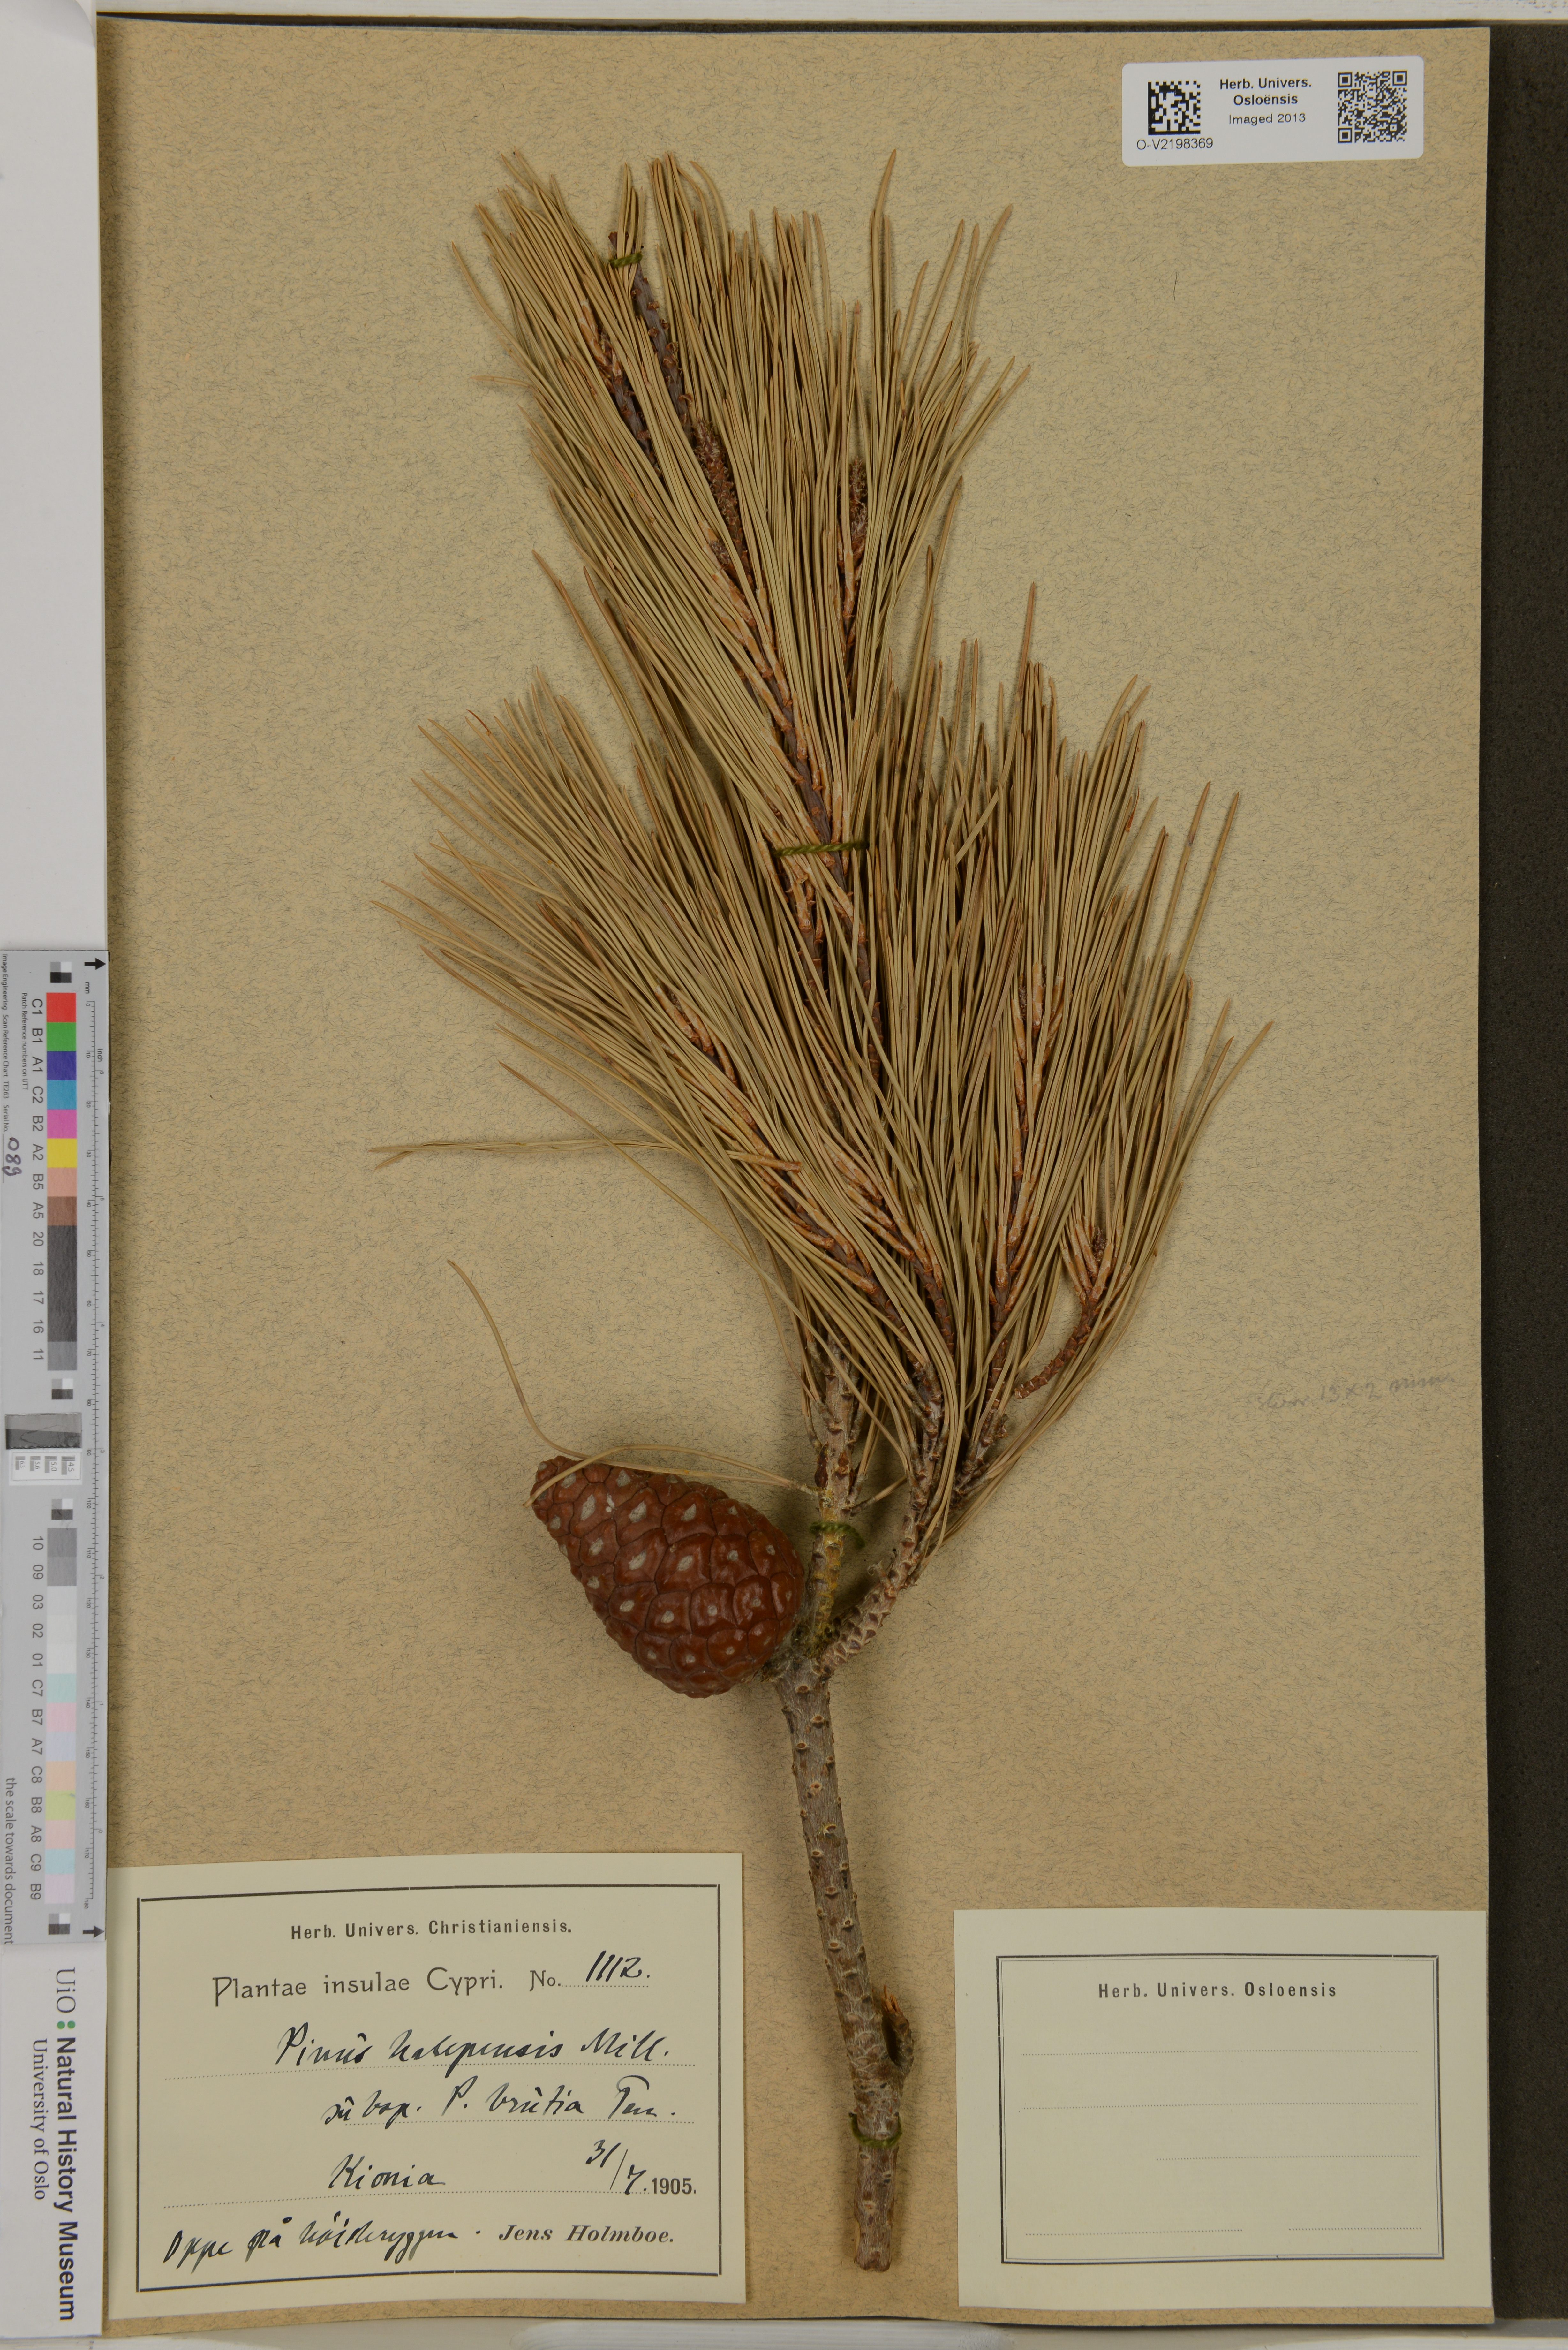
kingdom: Plantae
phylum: Tracheophyta
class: Pinopsida
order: Pinales
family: Pinaceae
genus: Pinus
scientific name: Pinus halepensis
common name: Aleppo pine
